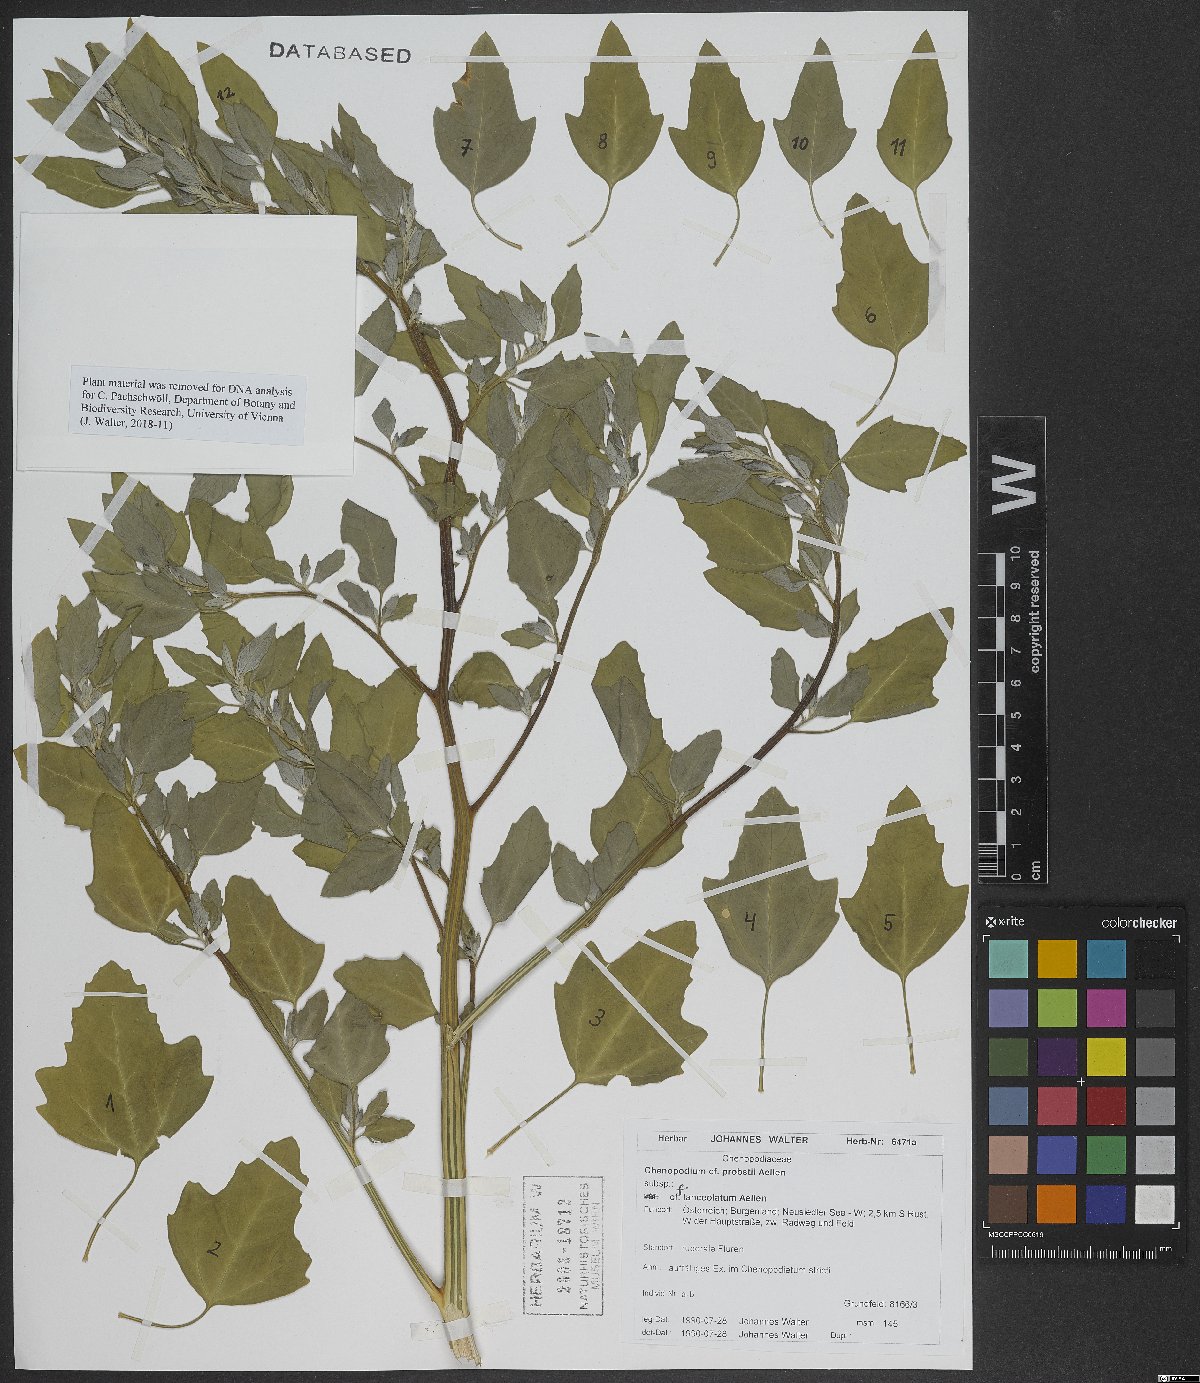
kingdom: Plantae
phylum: Tracheophyta
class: Magnoliopsida
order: Caryophyllales
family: Amaranthaceae
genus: Chenopodium
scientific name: Chenopodium probstii
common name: Probst's goosefoot
